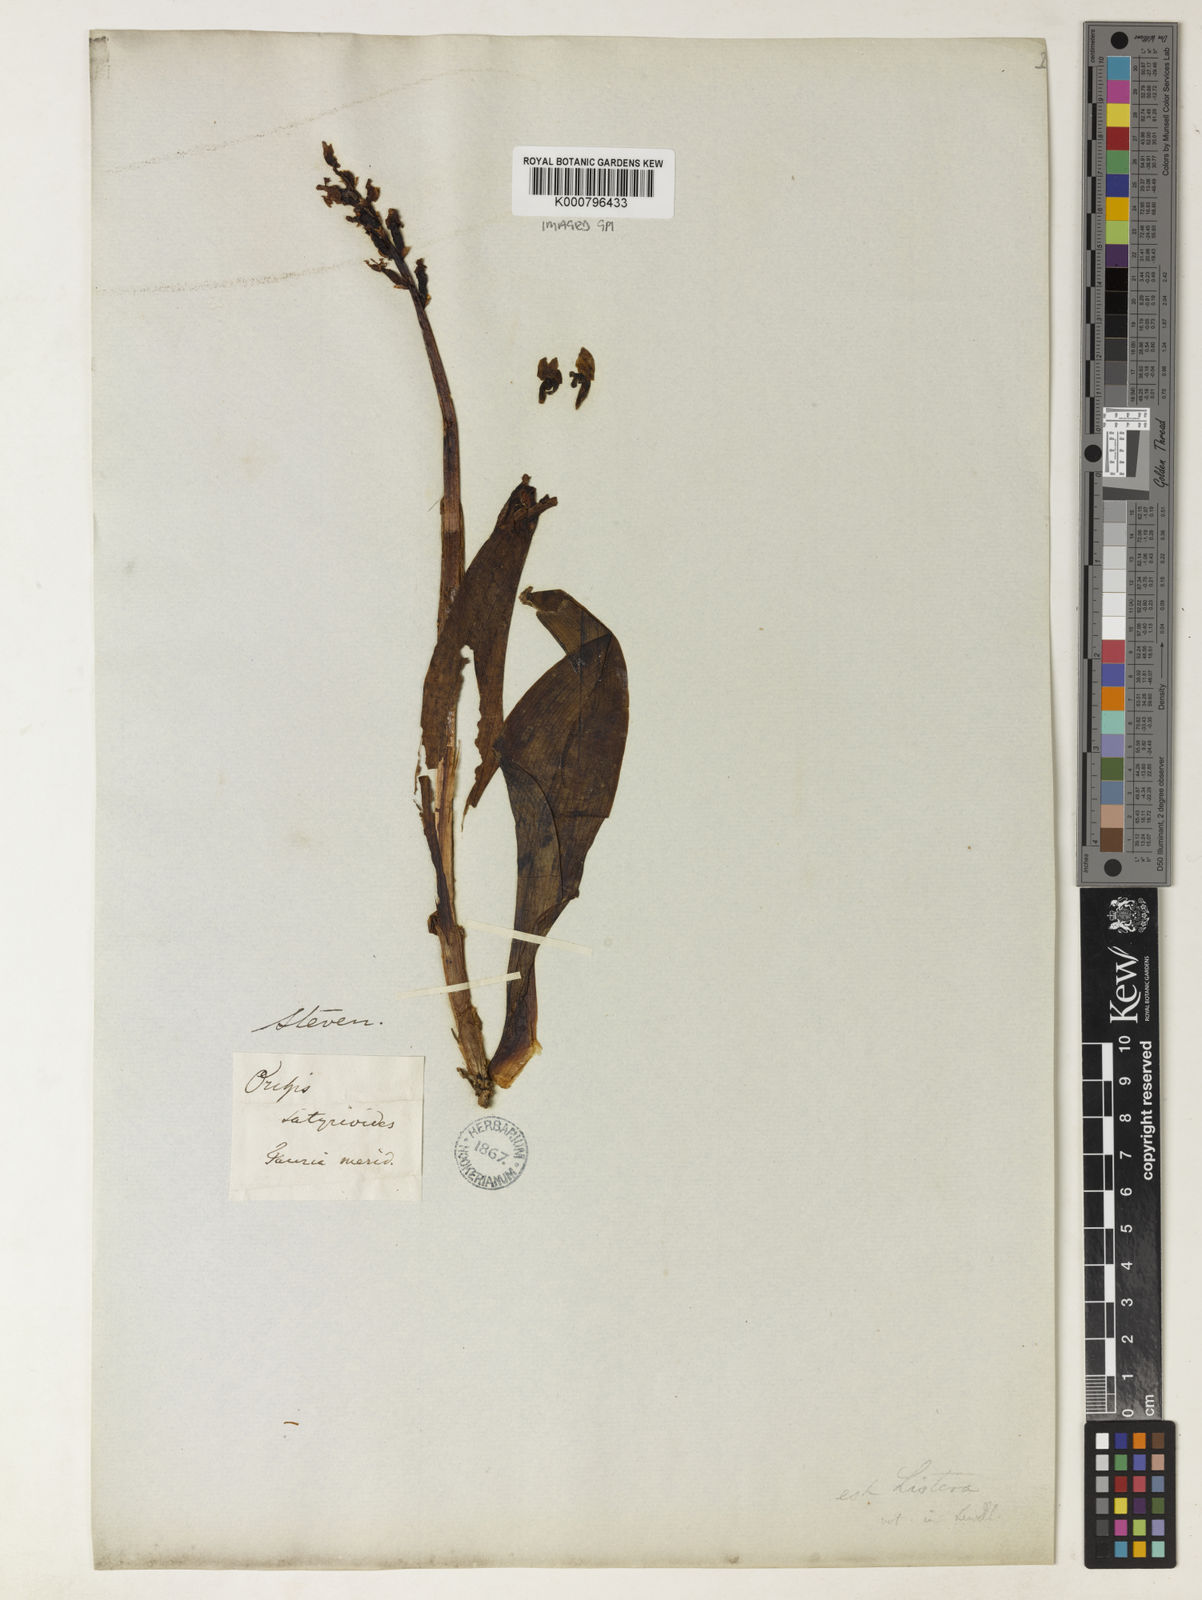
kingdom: Plantae
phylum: Tracheophyta
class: Liliopsida
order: Asparagales
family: Orchidaceae
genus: Steveniella
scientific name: Steveniella satyrioides
